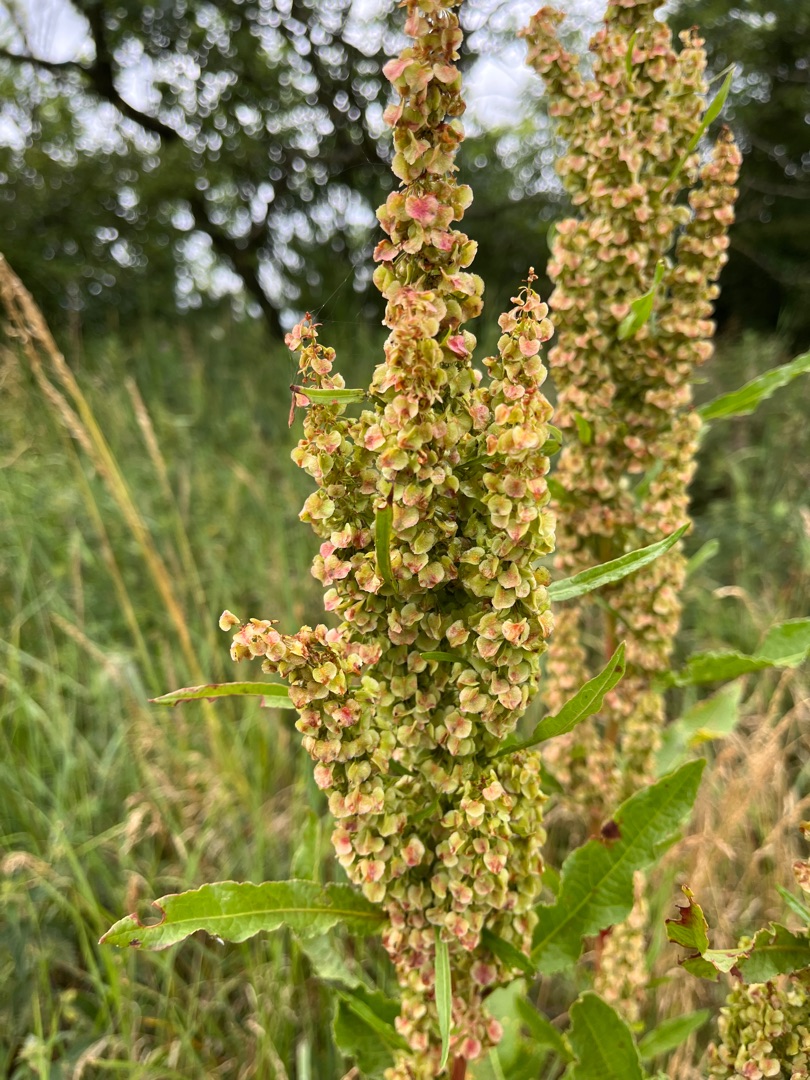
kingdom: Plantae
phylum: Tracheophyta
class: Magnoliopsida
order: Caryophyllales
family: Polygonaceae
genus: Rumex
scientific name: Rumex longifolius
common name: By-skræppe
